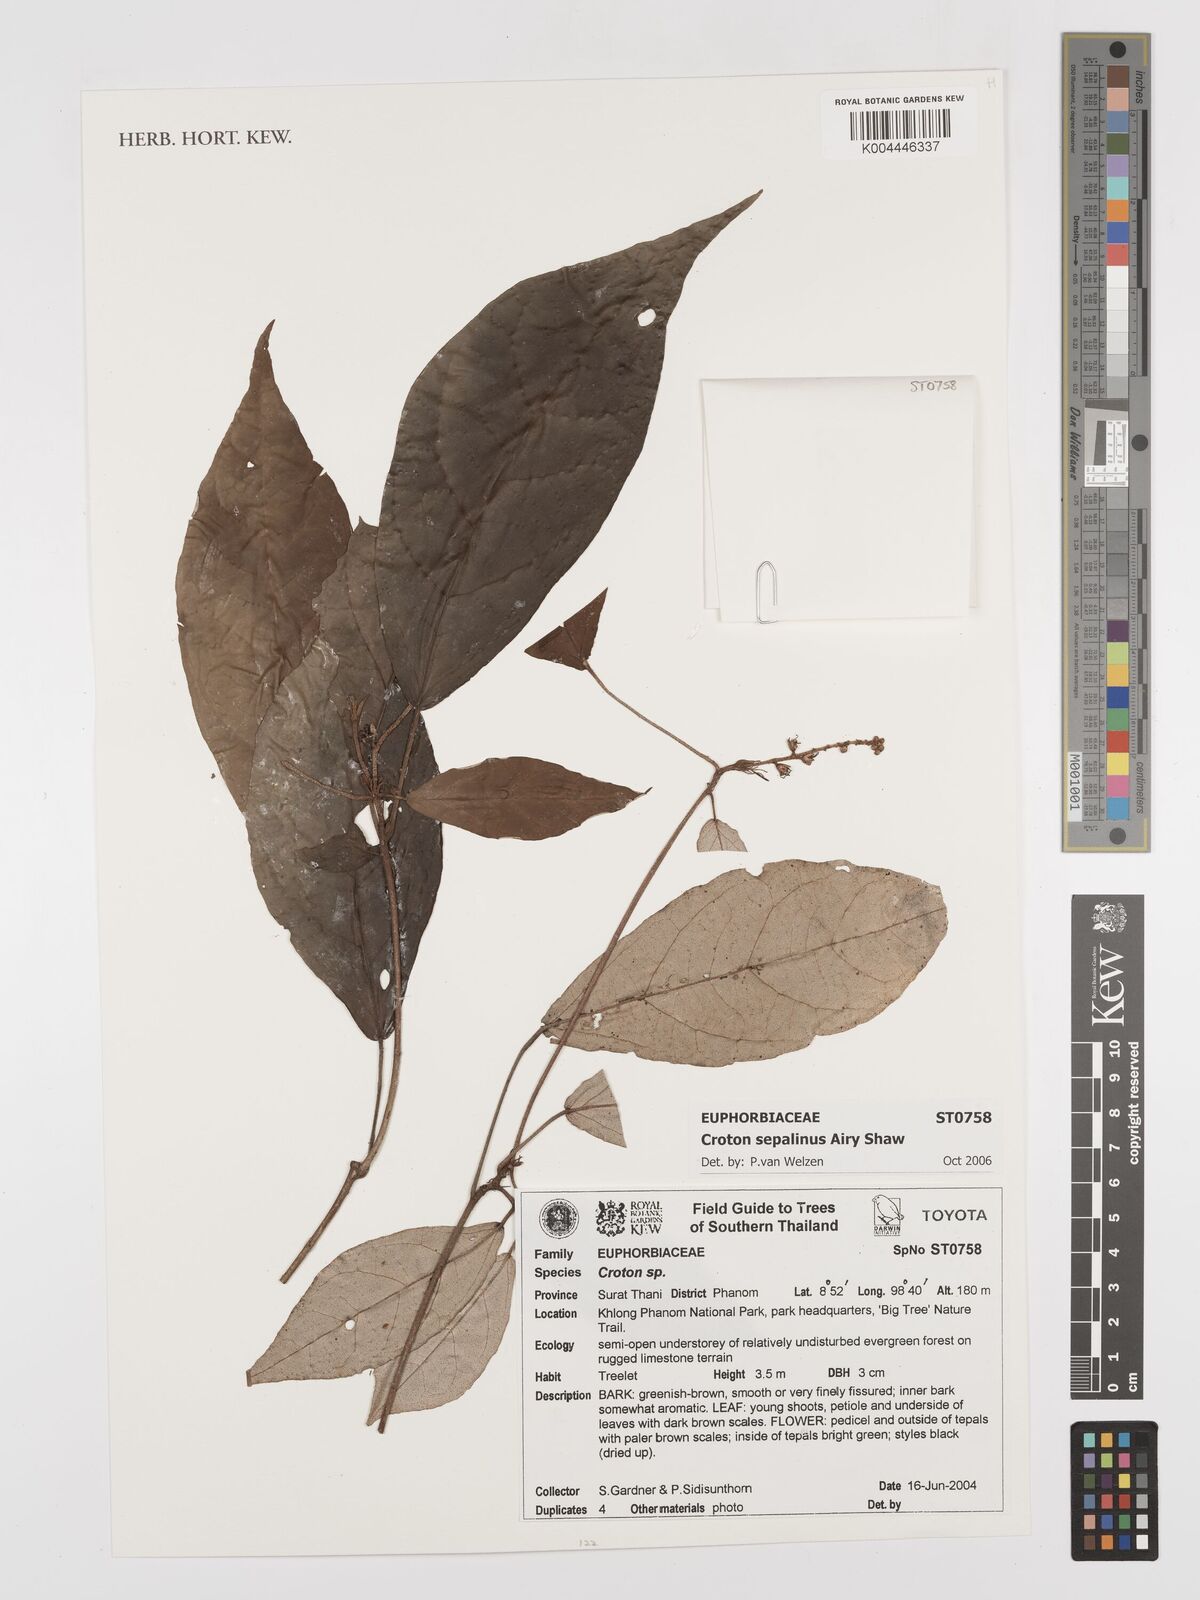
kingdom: Plantae
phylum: Tracheophyta
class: Magnoliopsida
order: Malpighiales
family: Euphorbiaceae
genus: Croton
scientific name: Croton sepalinus
